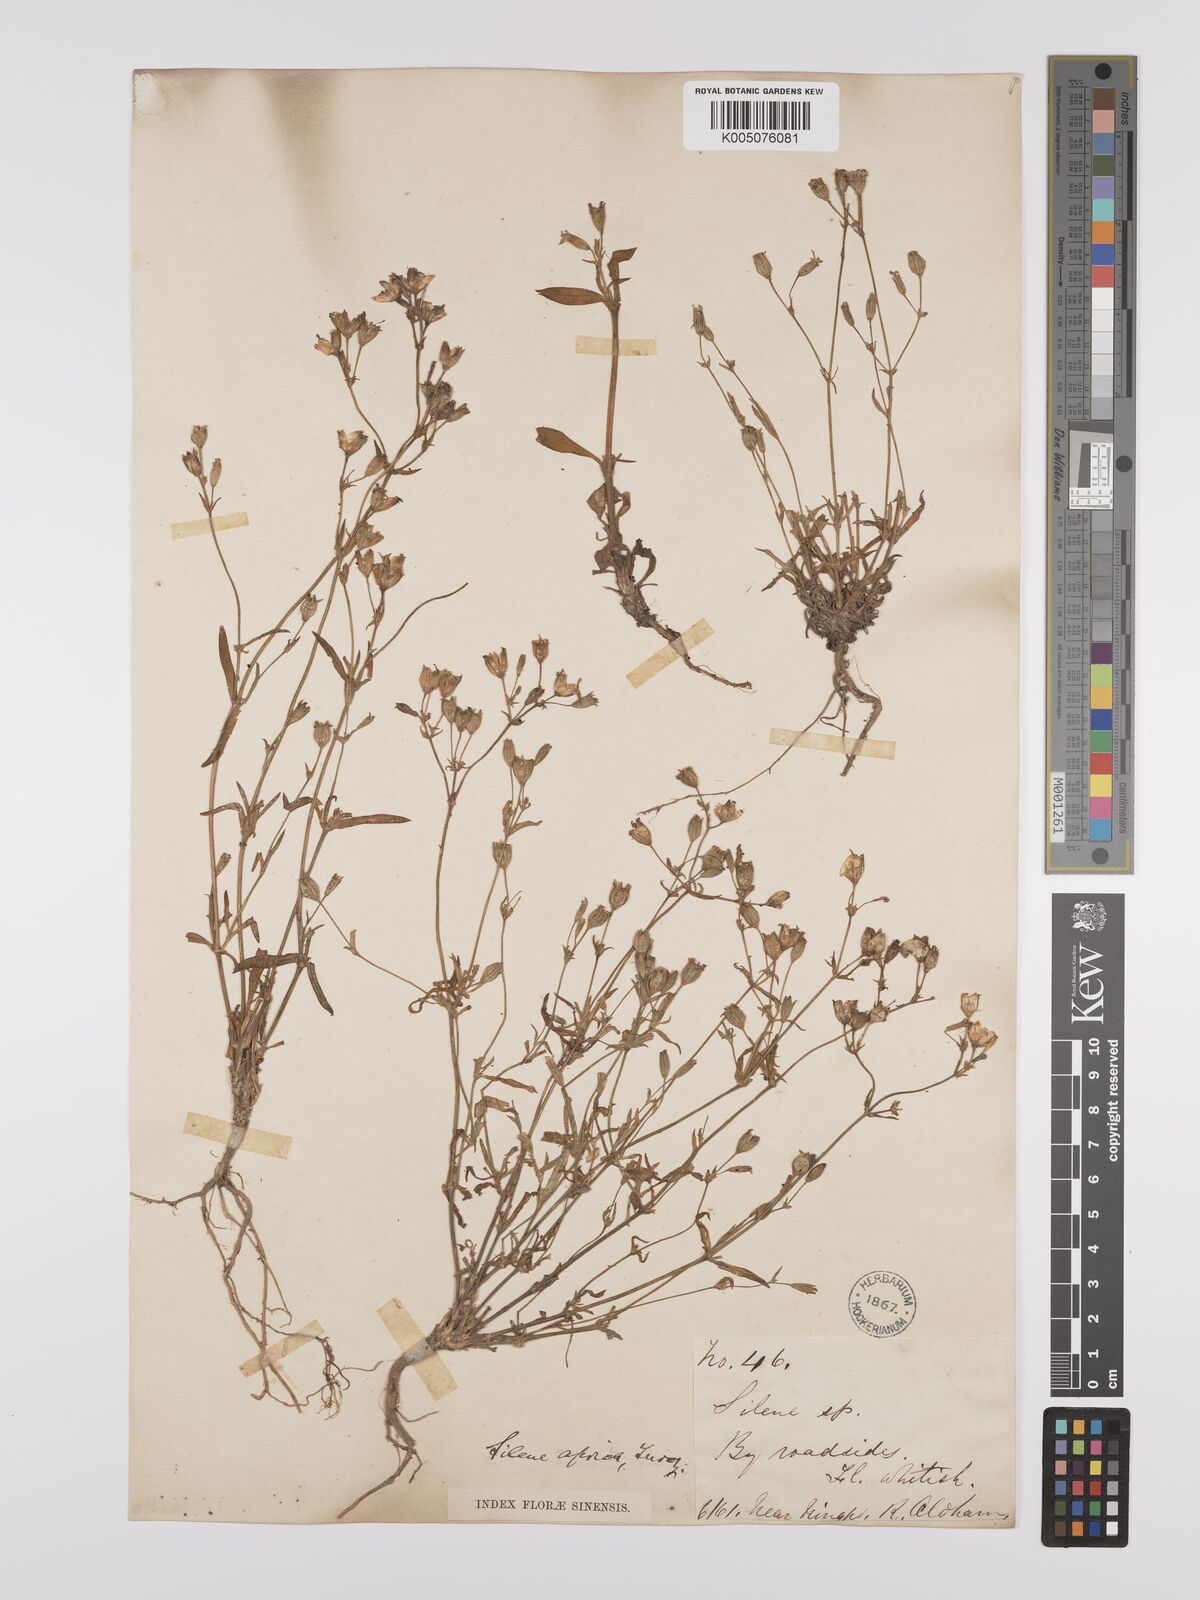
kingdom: Plantae
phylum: Tracheophyta
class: Magnoliopsida
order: Caryophyllales
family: Caryophyllaceae
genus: Silene
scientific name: Silene aprica
